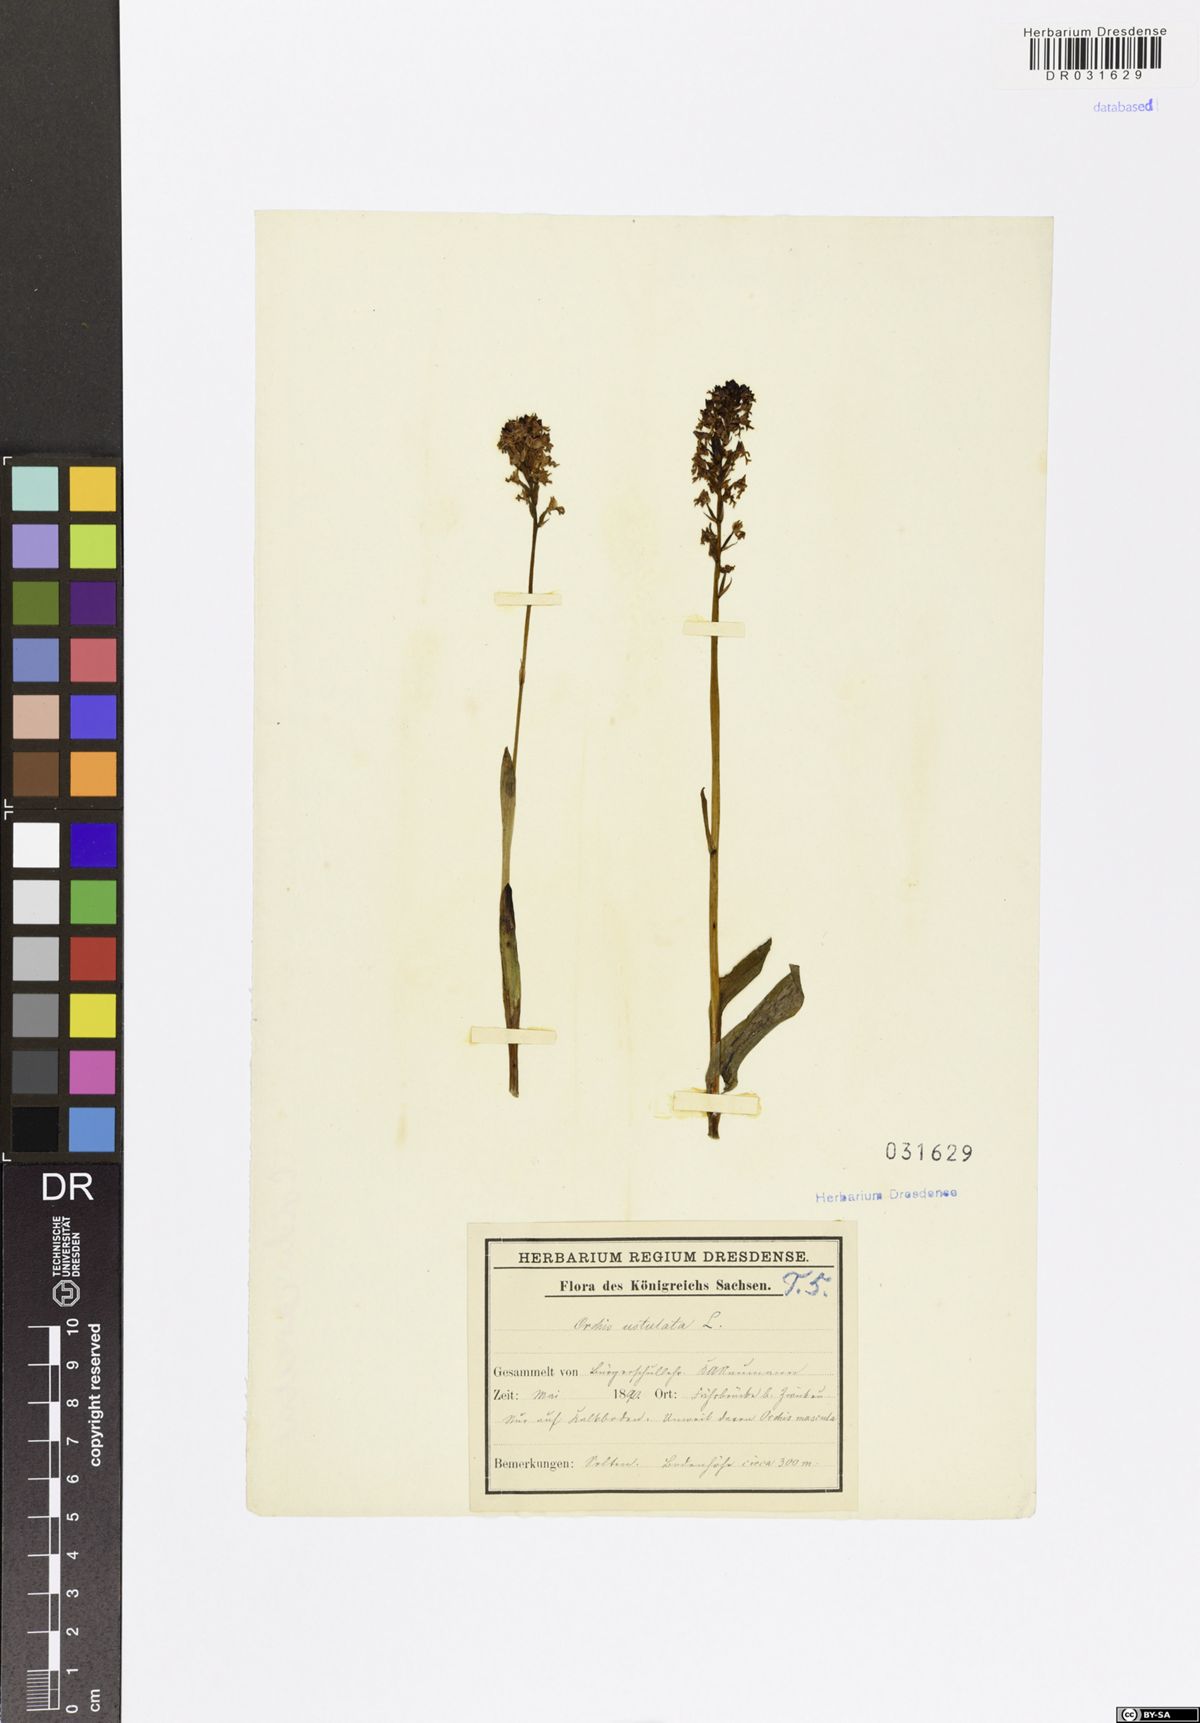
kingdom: Plantae
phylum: Tracheophyta
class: Liliopsida
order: Asparagales
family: Orchidaceae
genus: Neotinea
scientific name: Neotinea ustulata
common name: Burnt orchid
